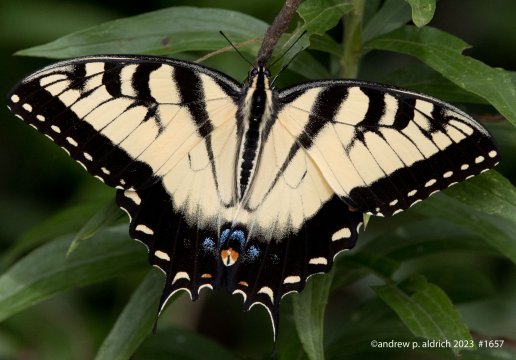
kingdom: Animalia
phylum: Arthropoda
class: Insecta
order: Lepidoptera
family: Papilionidae
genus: Pterourus
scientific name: Pterourus glaucus
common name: Eastern Tiger Swallowtail
